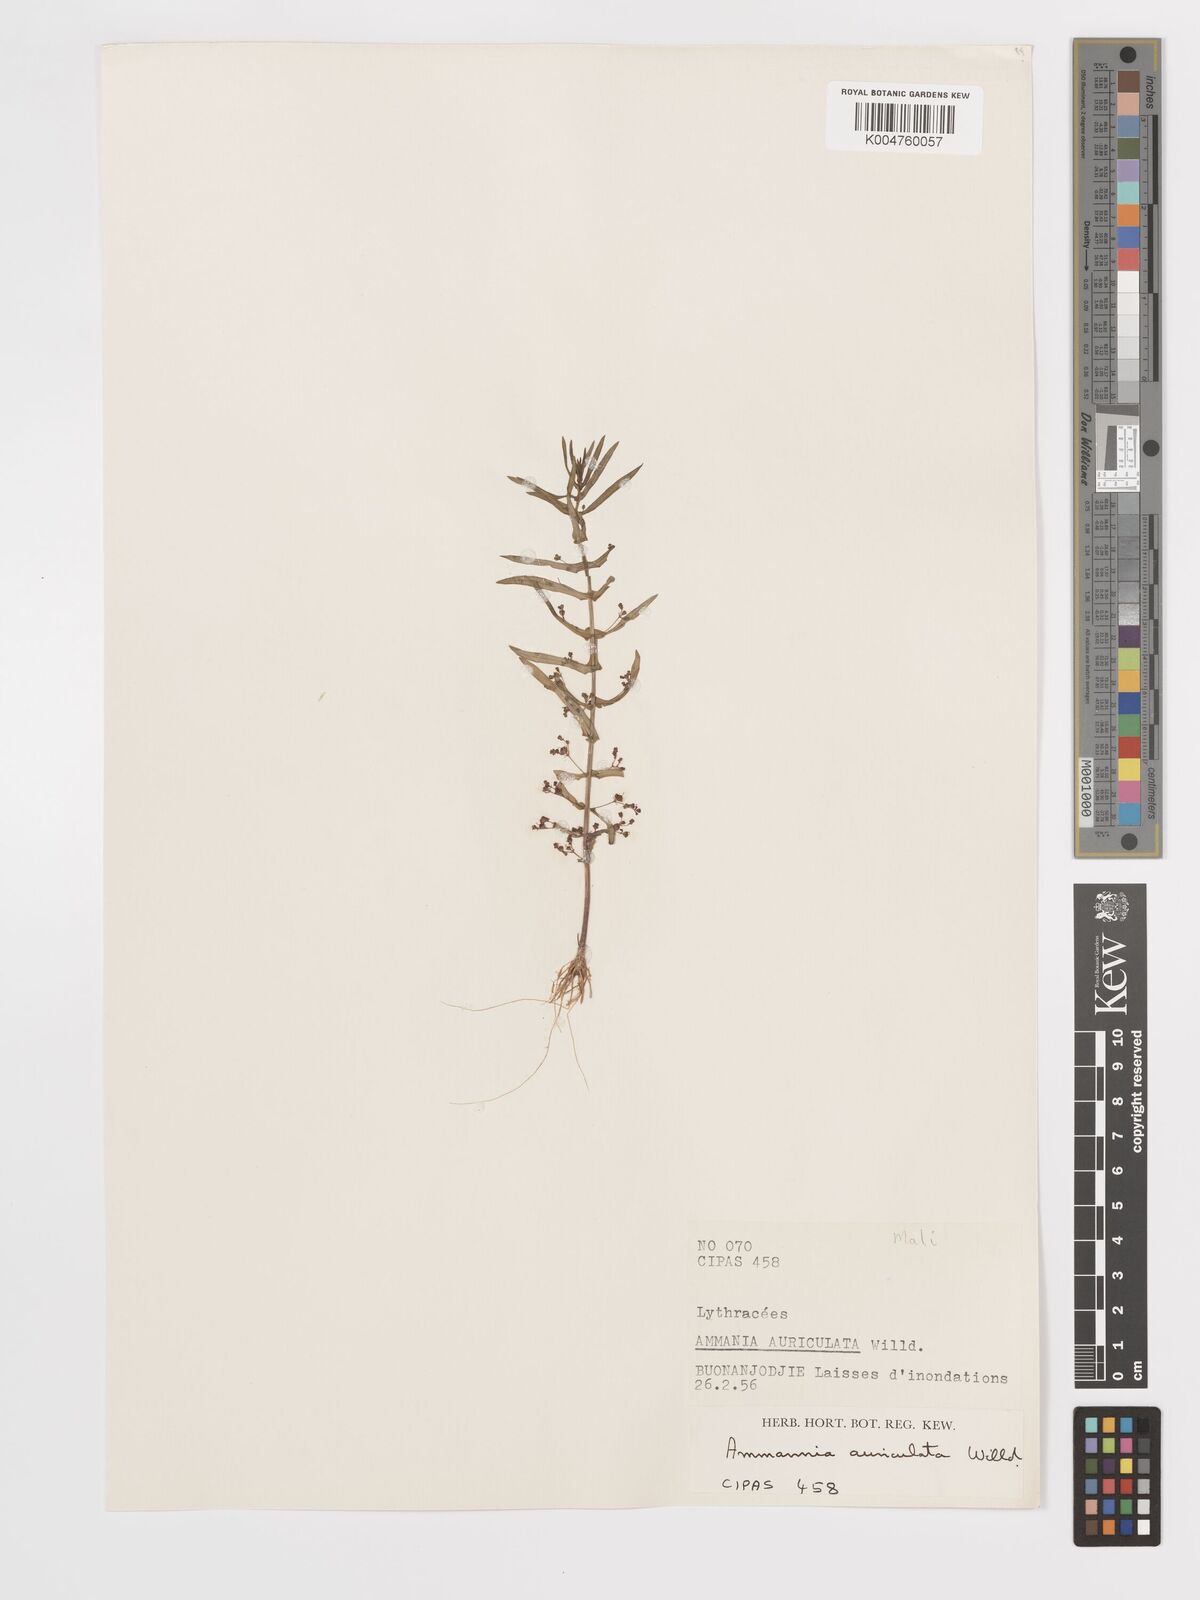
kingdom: Plantae
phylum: Tracheophyta
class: Magnoliopsida
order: Myrtales
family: Lythraceae
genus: Ammannia
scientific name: Ammannia auriculata
